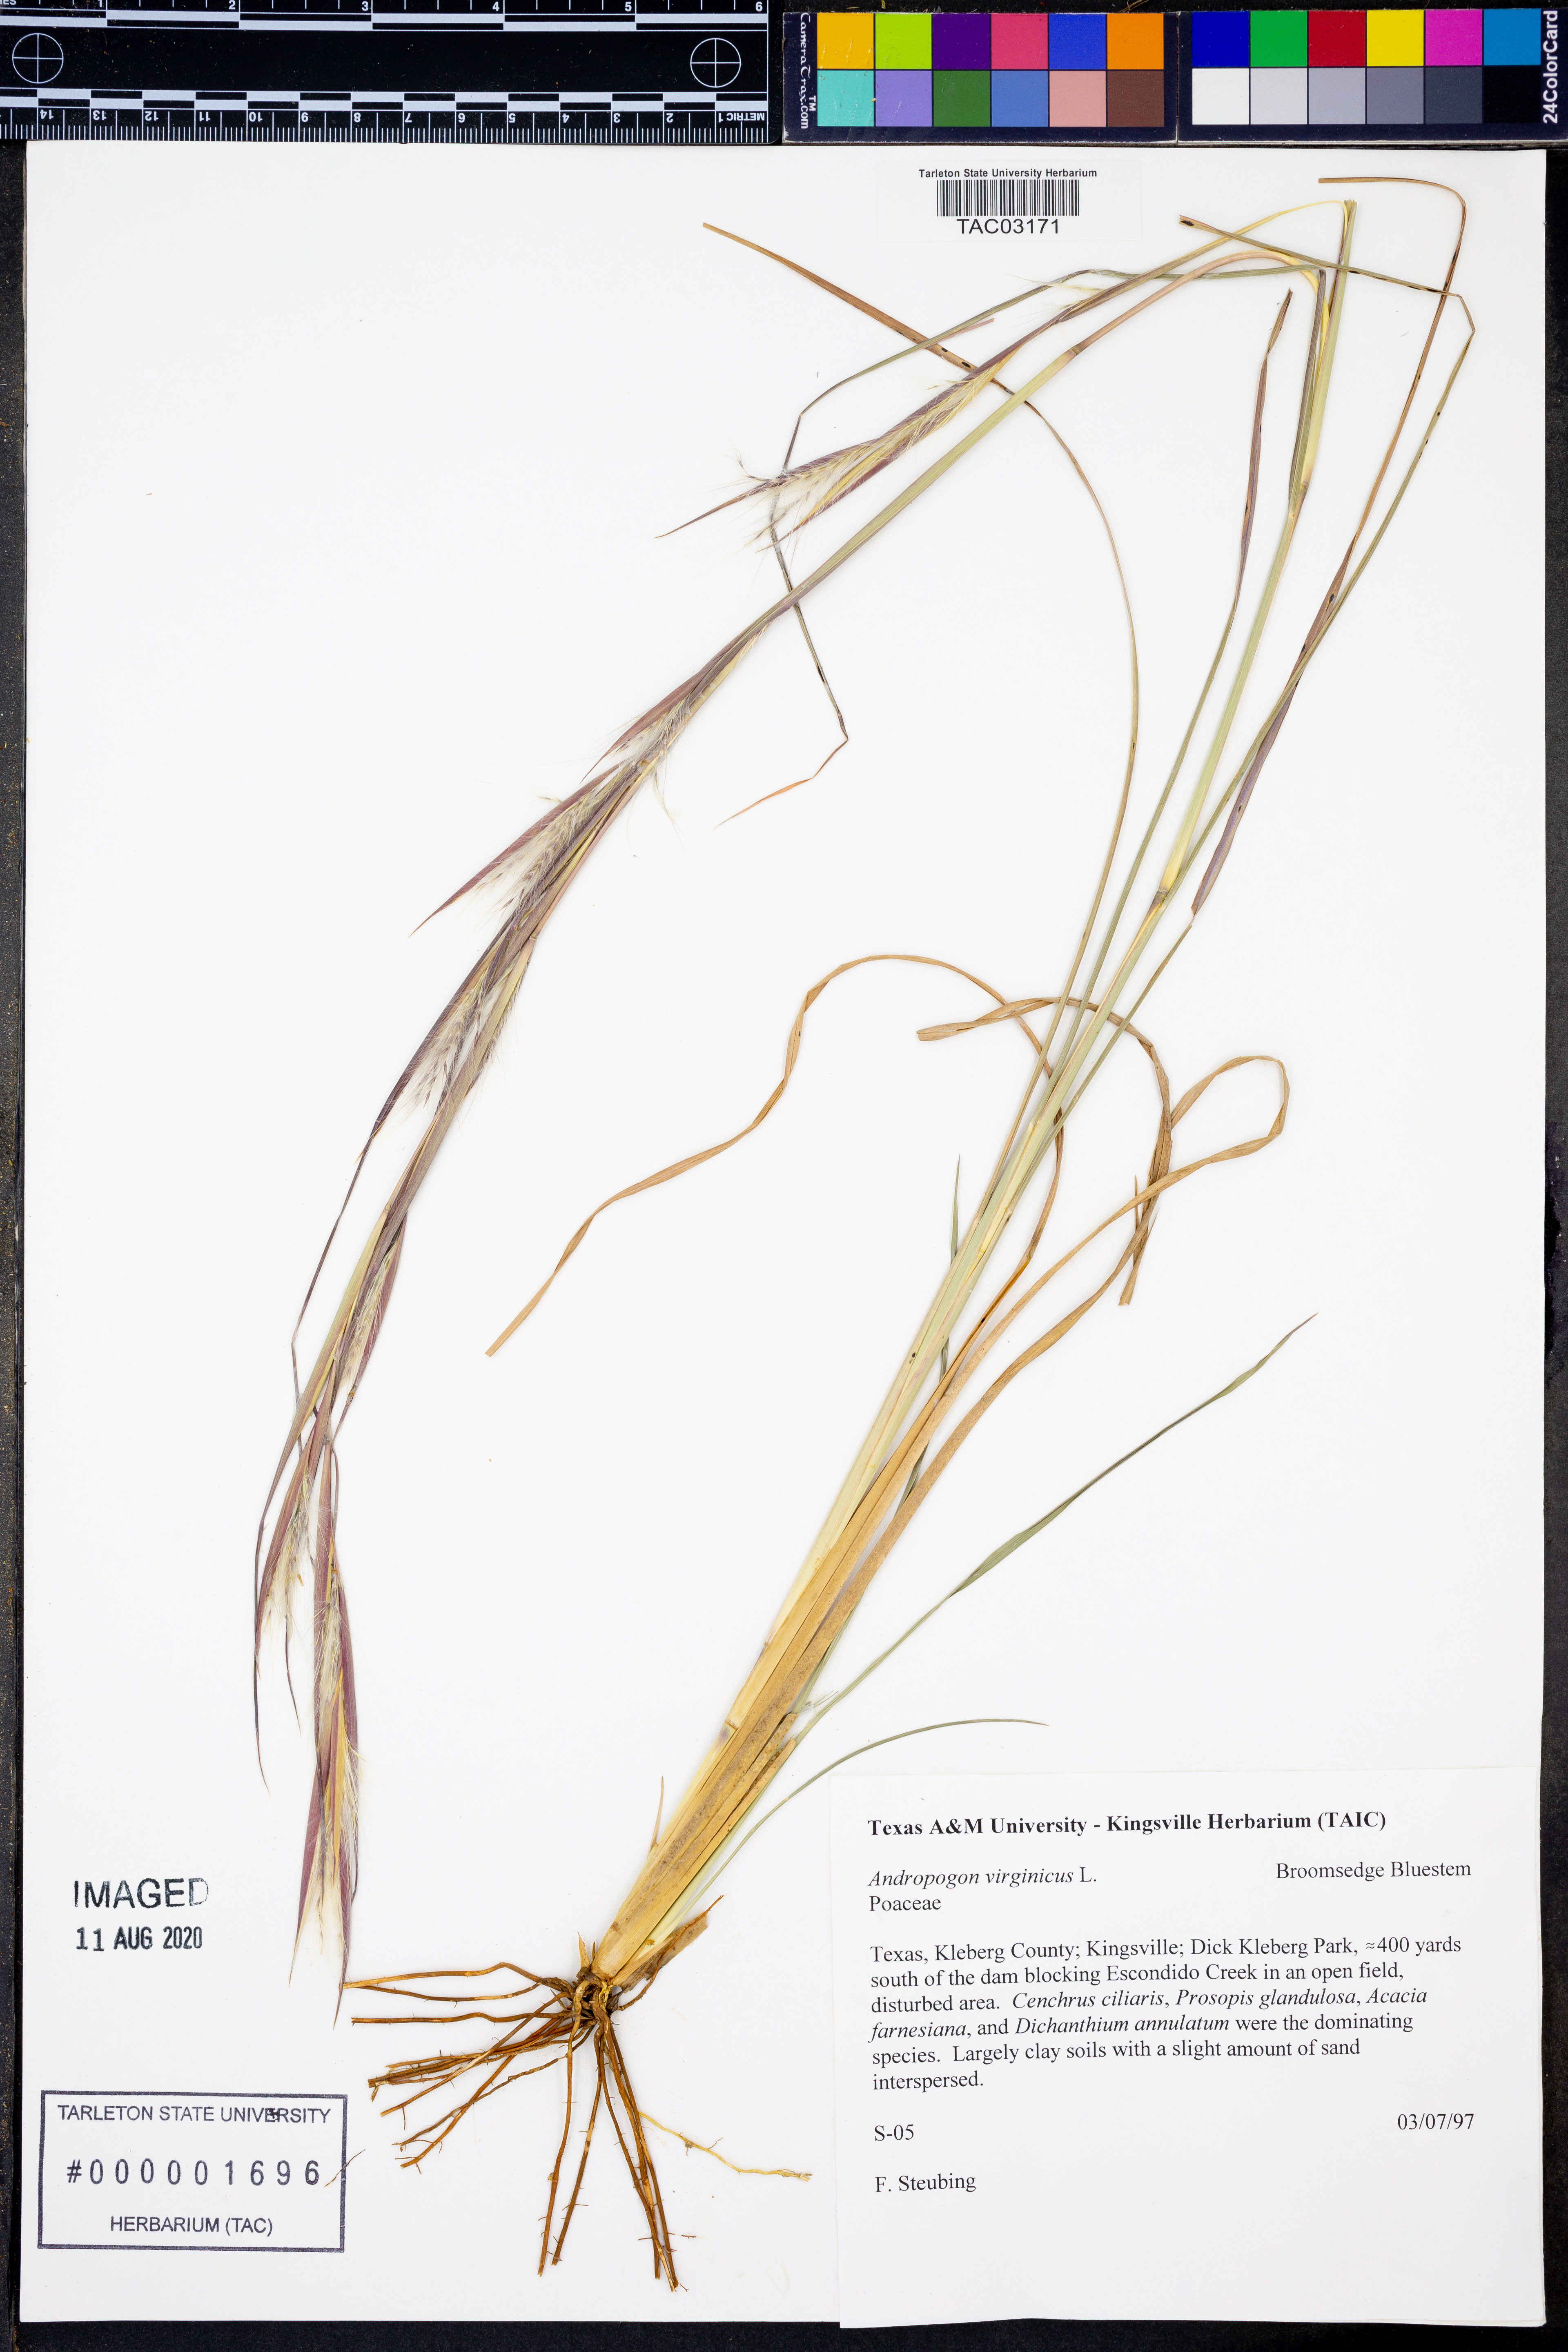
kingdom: Plantae
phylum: Tracheophyta
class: Liliopsida
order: Poales
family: Poaceae
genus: Andropogon
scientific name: Andropogon virginicus
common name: Broomsedge bluestem
